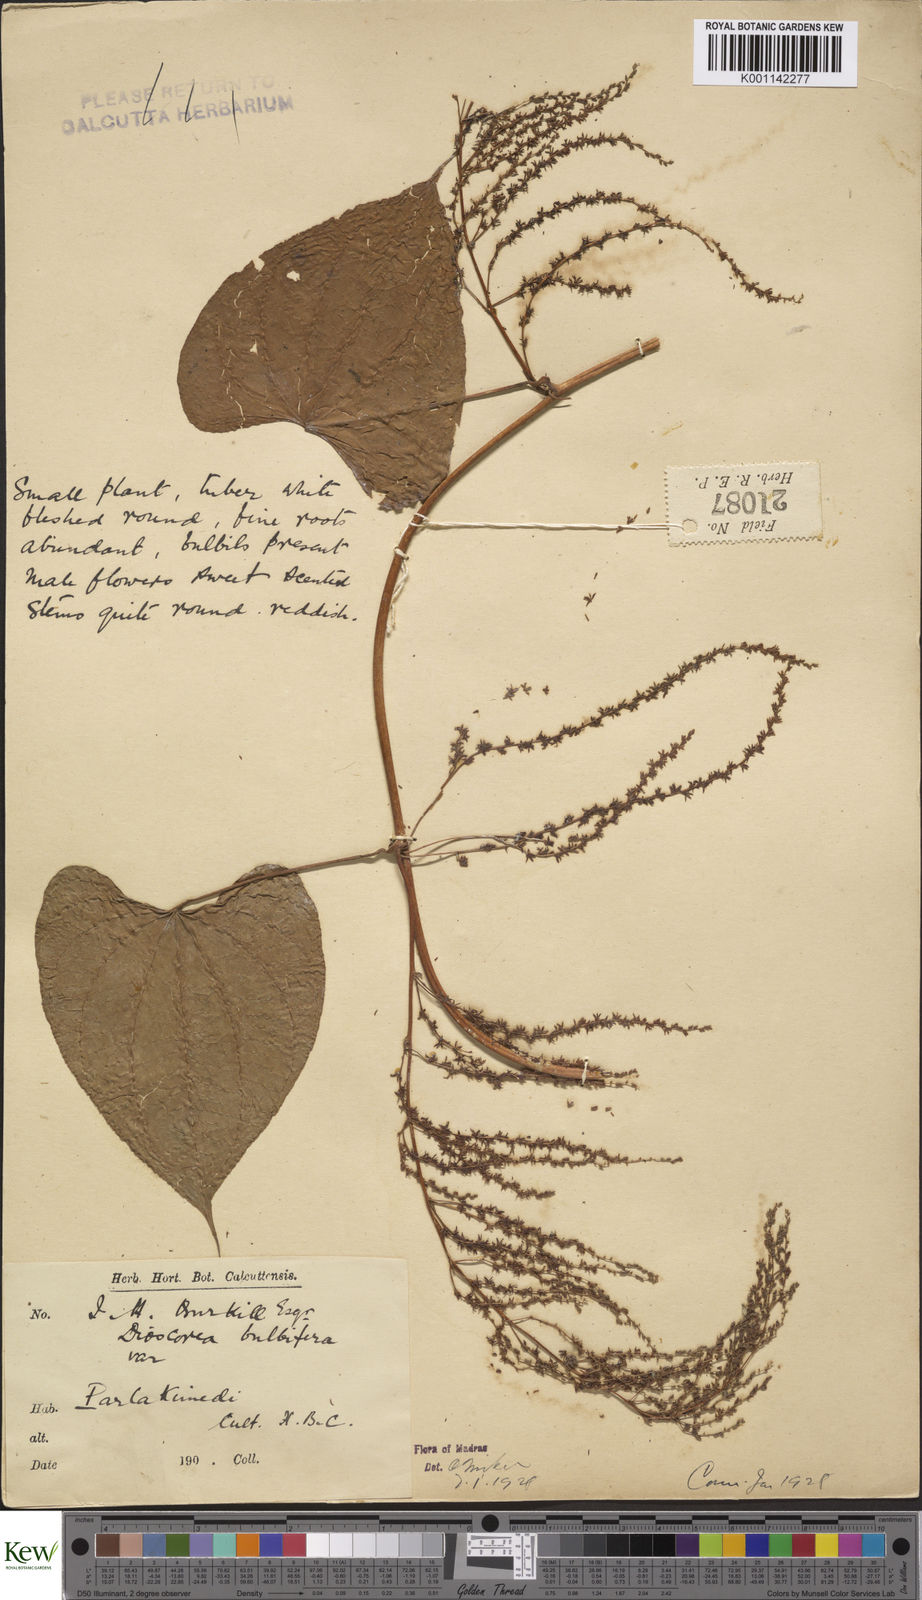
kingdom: Plantae
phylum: Tracheophyta
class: Liliopsida
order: Dioscoreales
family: Dioscoreaceae
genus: Dioscorea
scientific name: Dioscorea bulbifera
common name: Air yam
